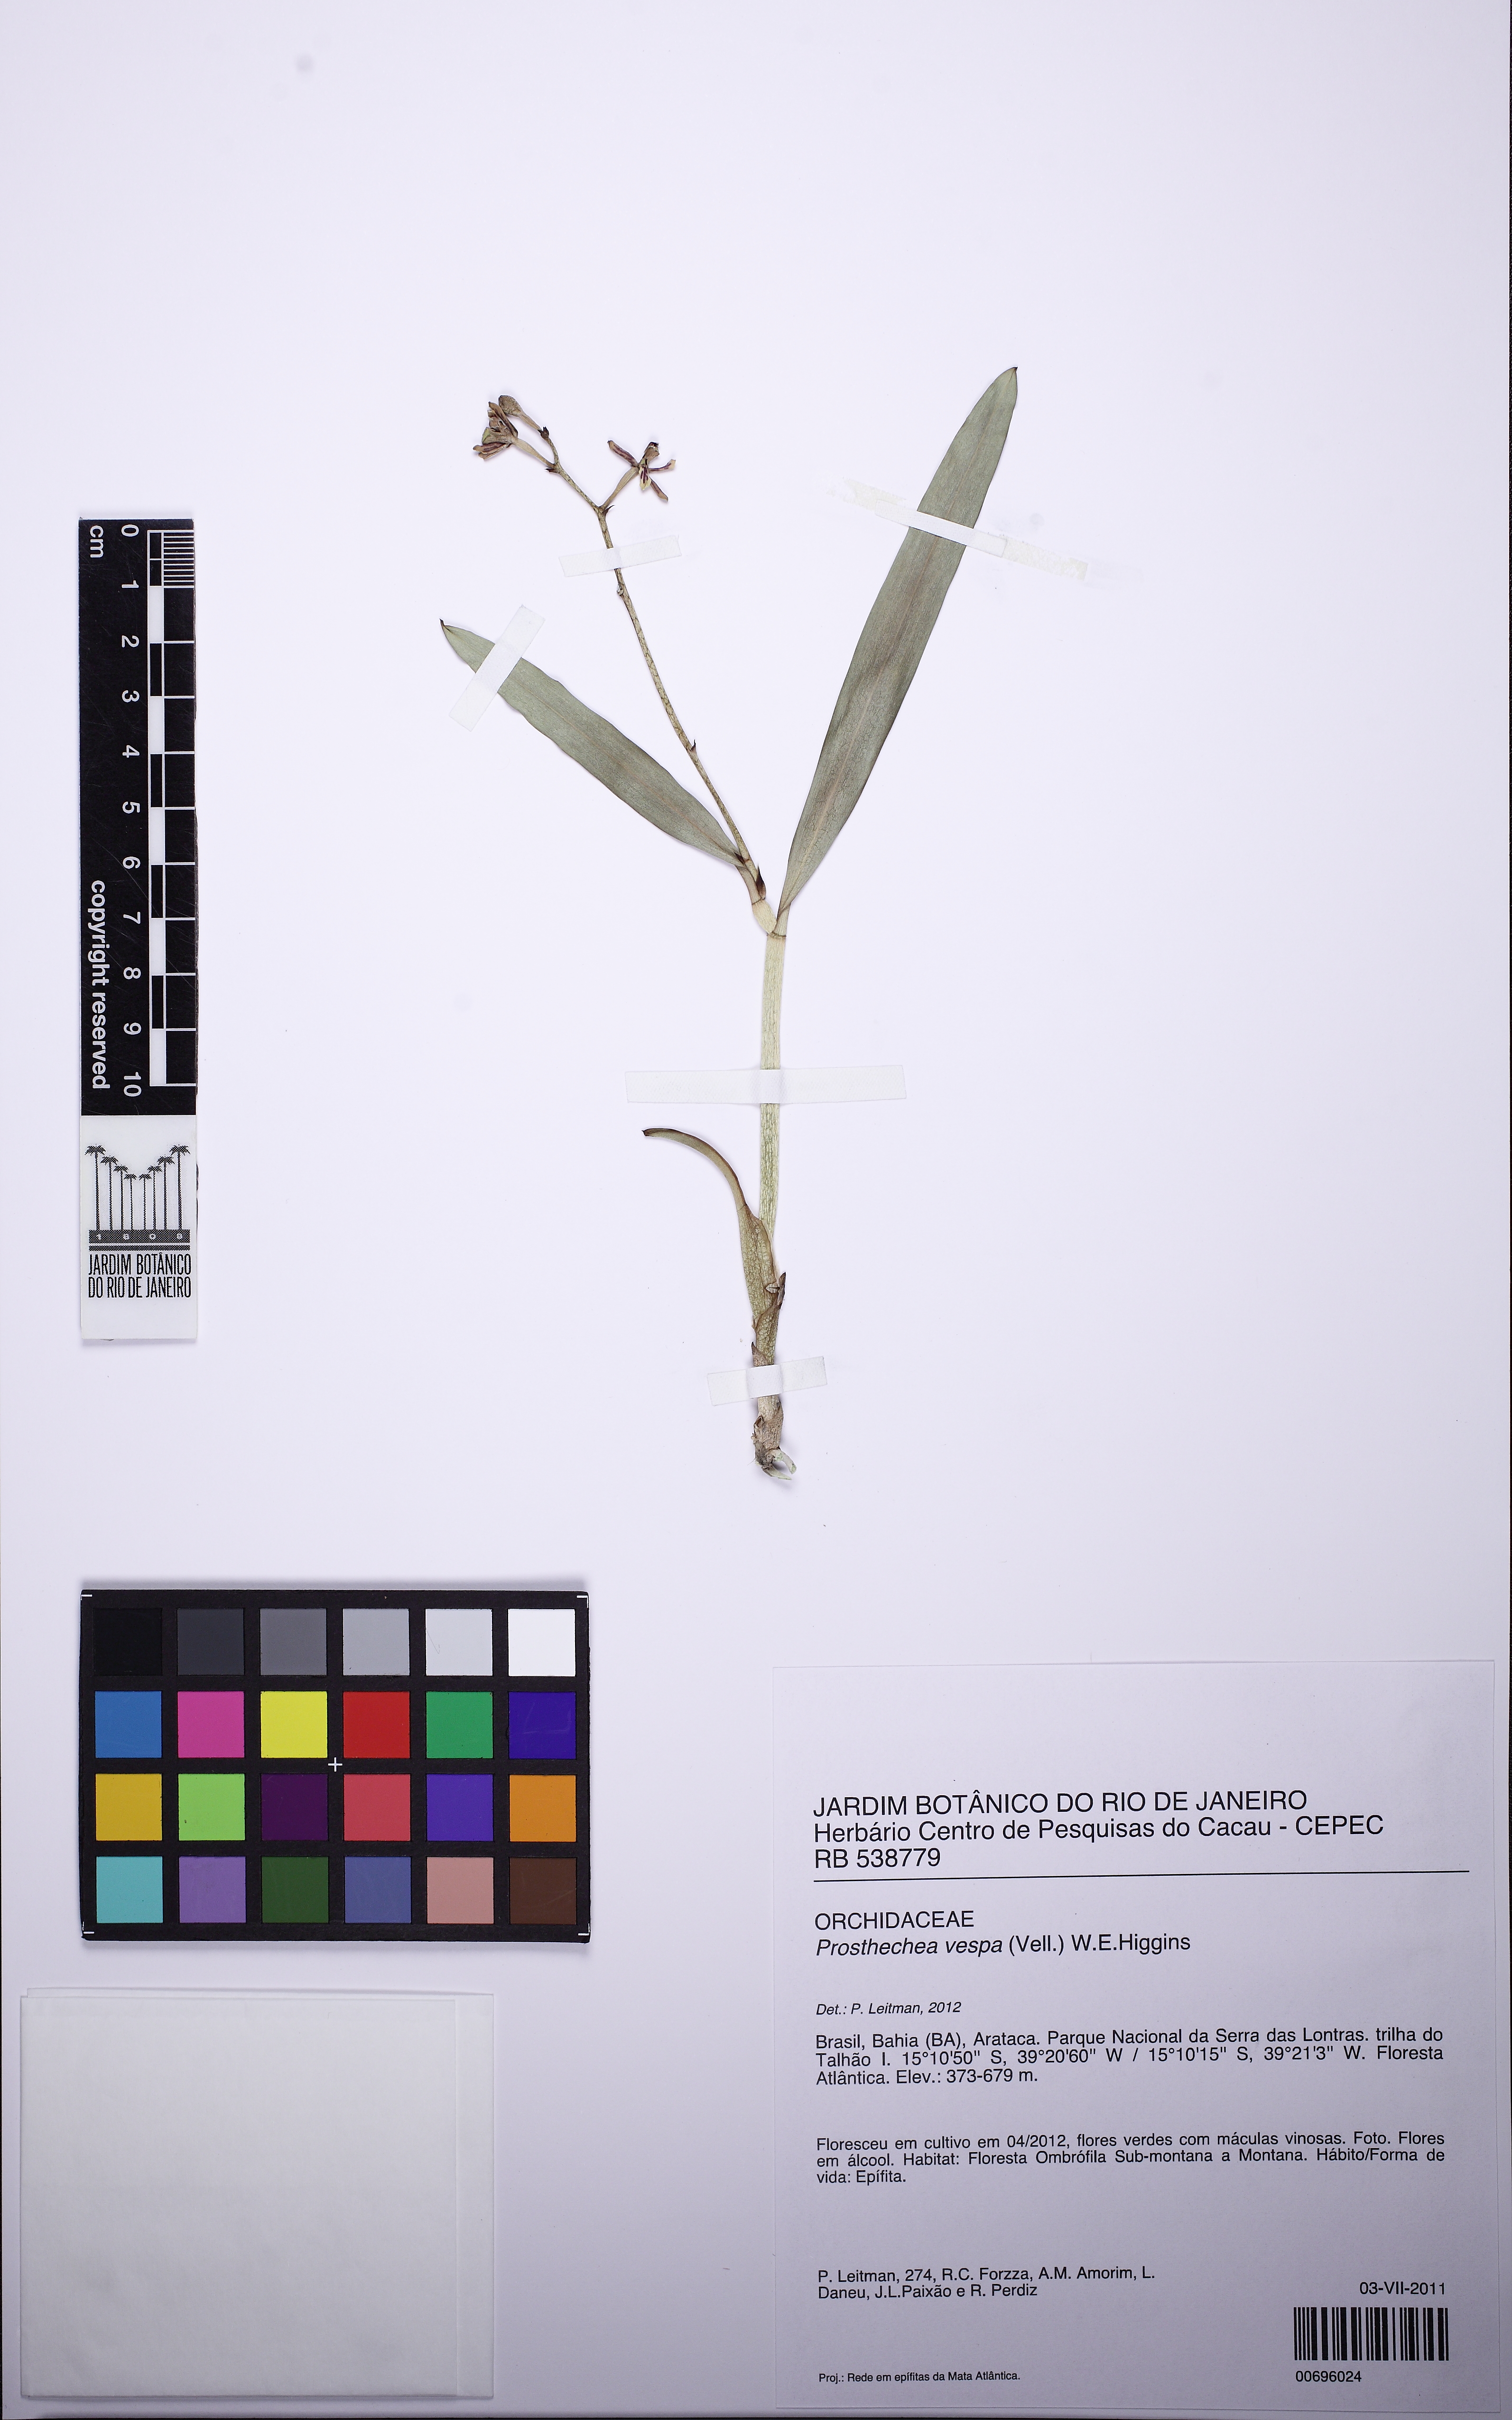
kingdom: Plantae
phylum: Tracheophyta
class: Liliopsida
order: Asparagales
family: Orchidaceae
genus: Prosthechea
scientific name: Prosthechea vespa
